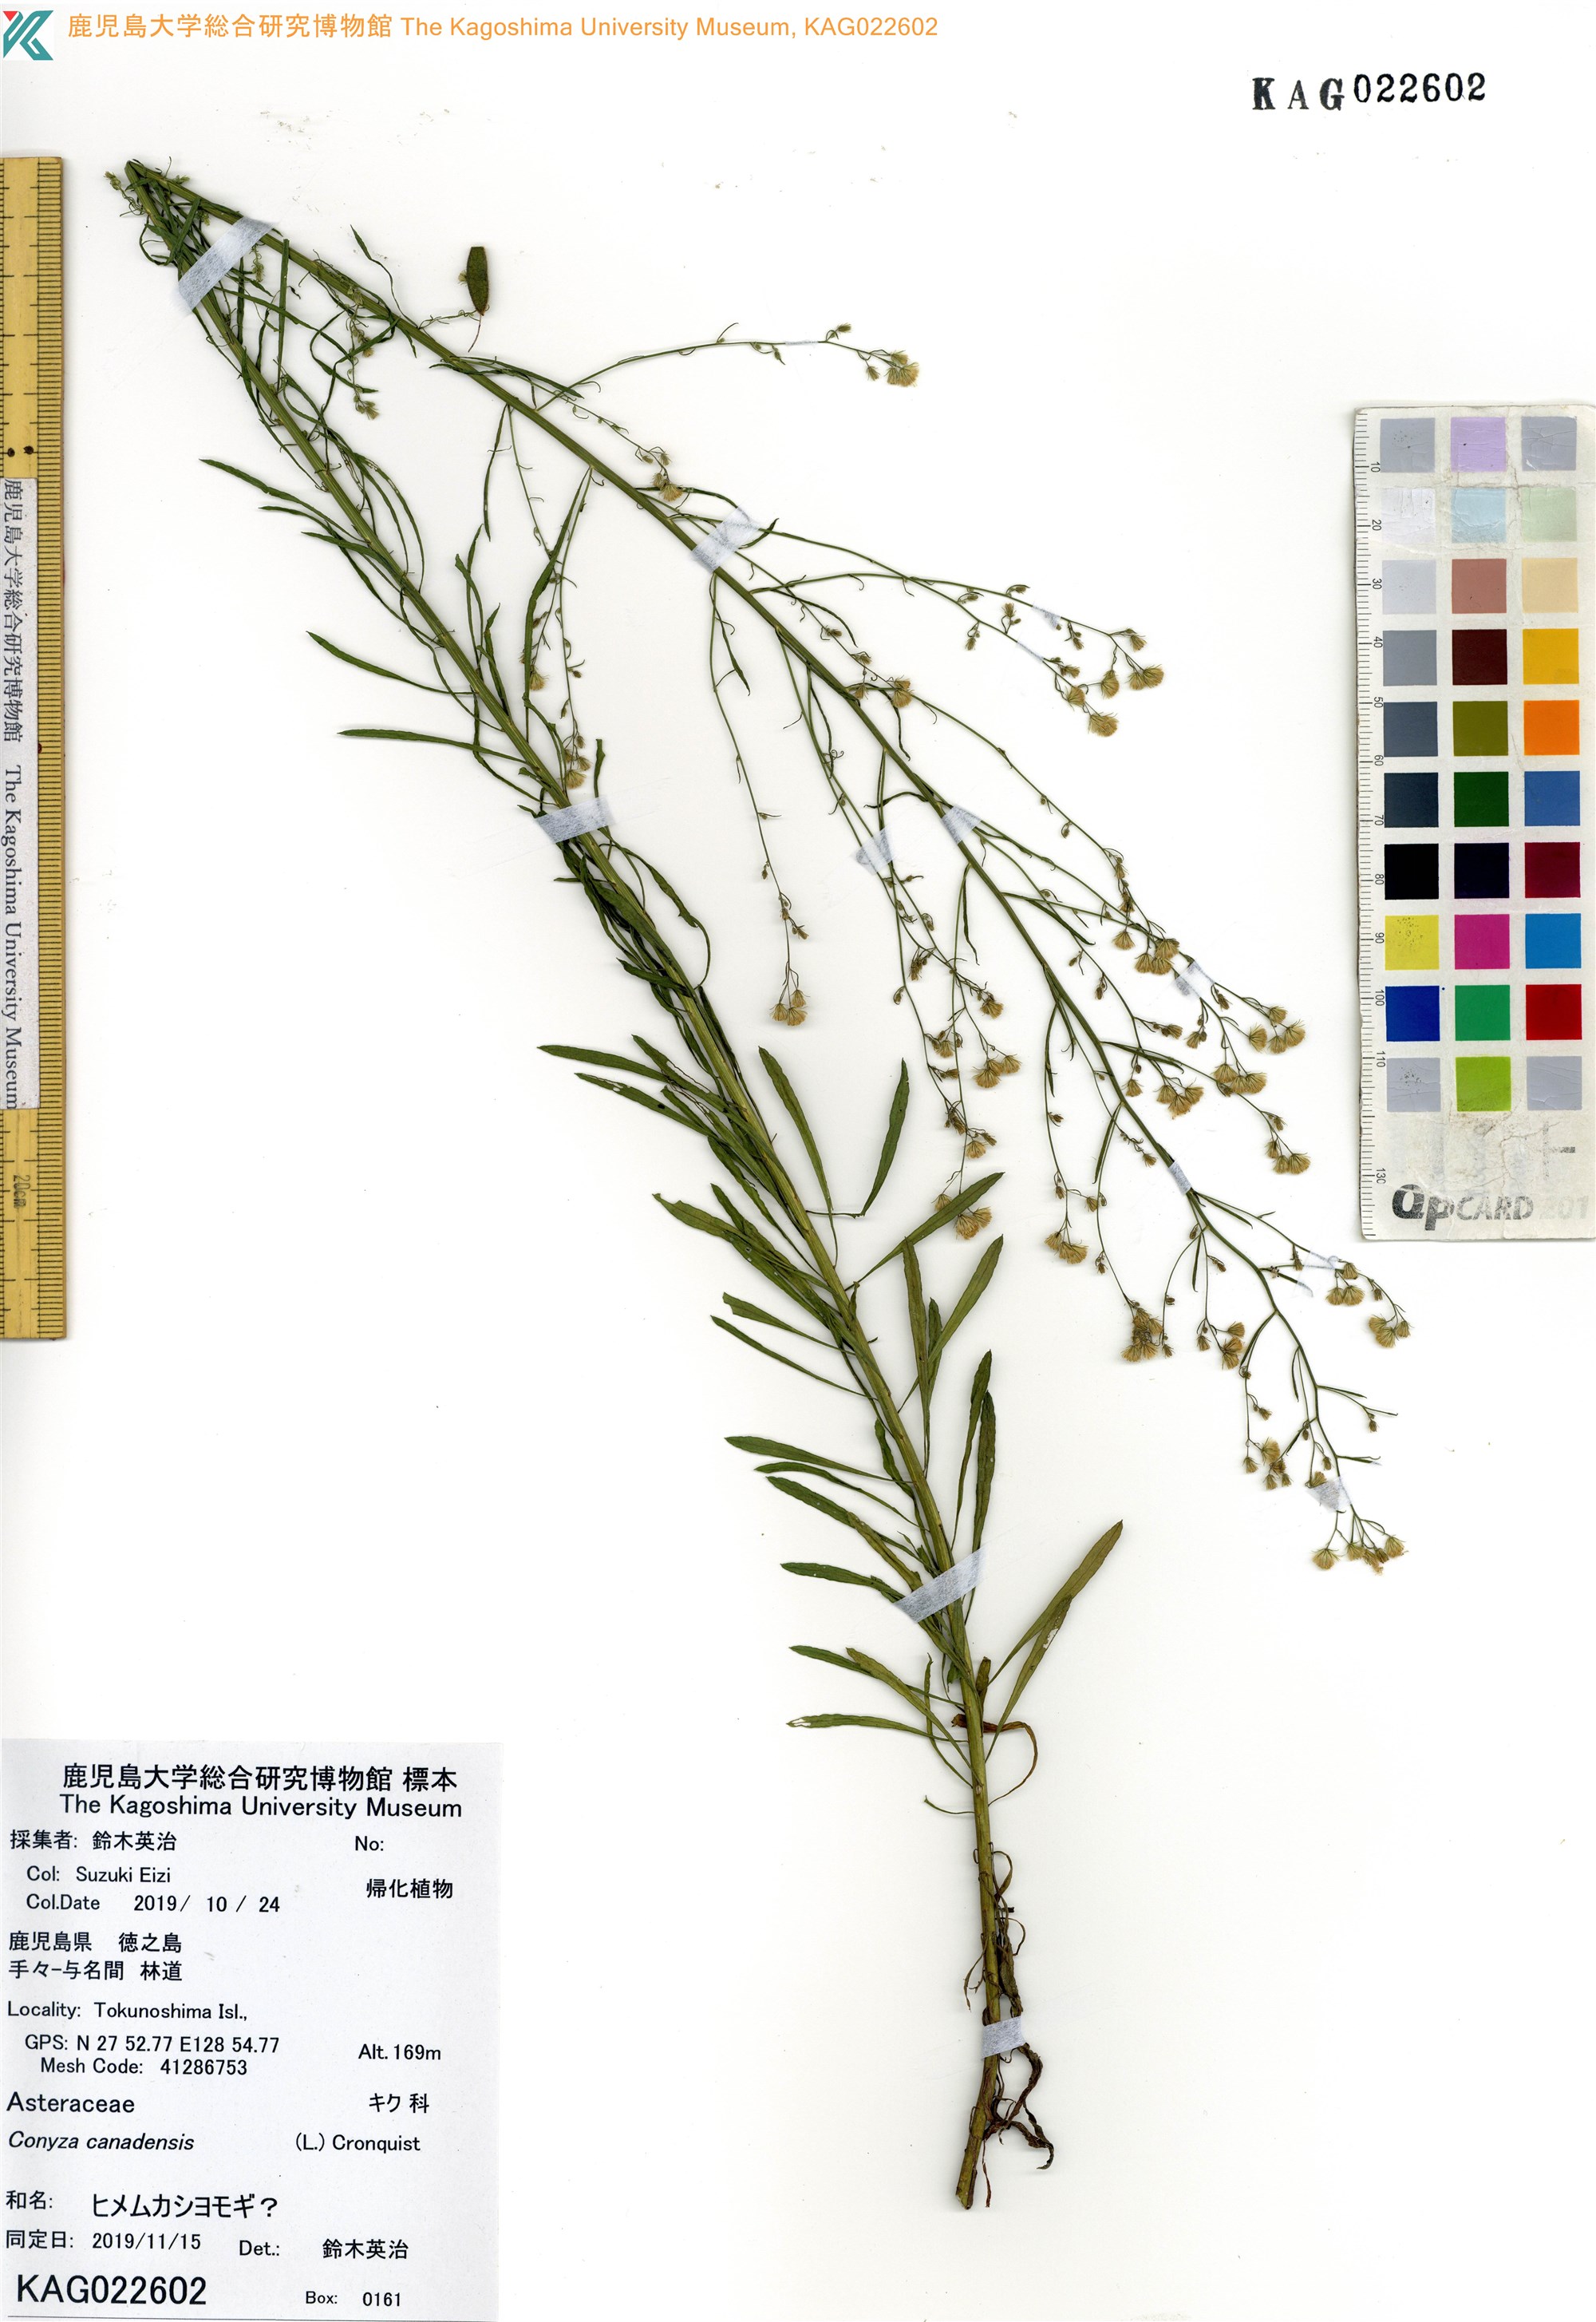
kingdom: Plantae
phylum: Tracheophyta
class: Magnoliopsida
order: Asterales
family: Asteraceae
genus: Erigeron
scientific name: Erigeron canadensis
